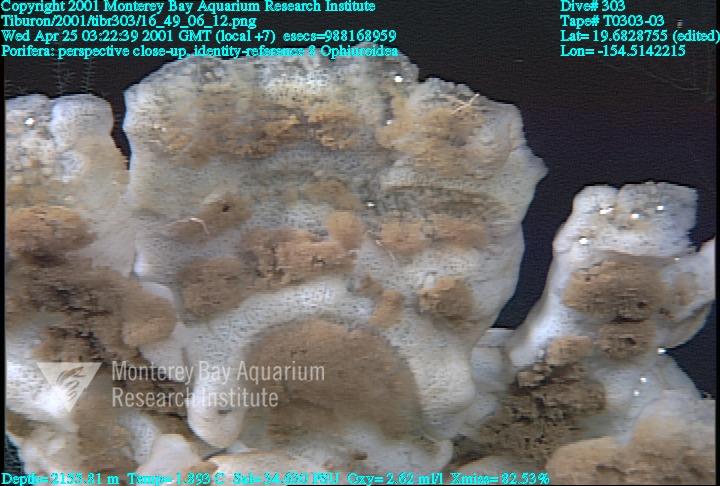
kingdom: Animalia
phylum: Porifera
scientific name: Porifera
